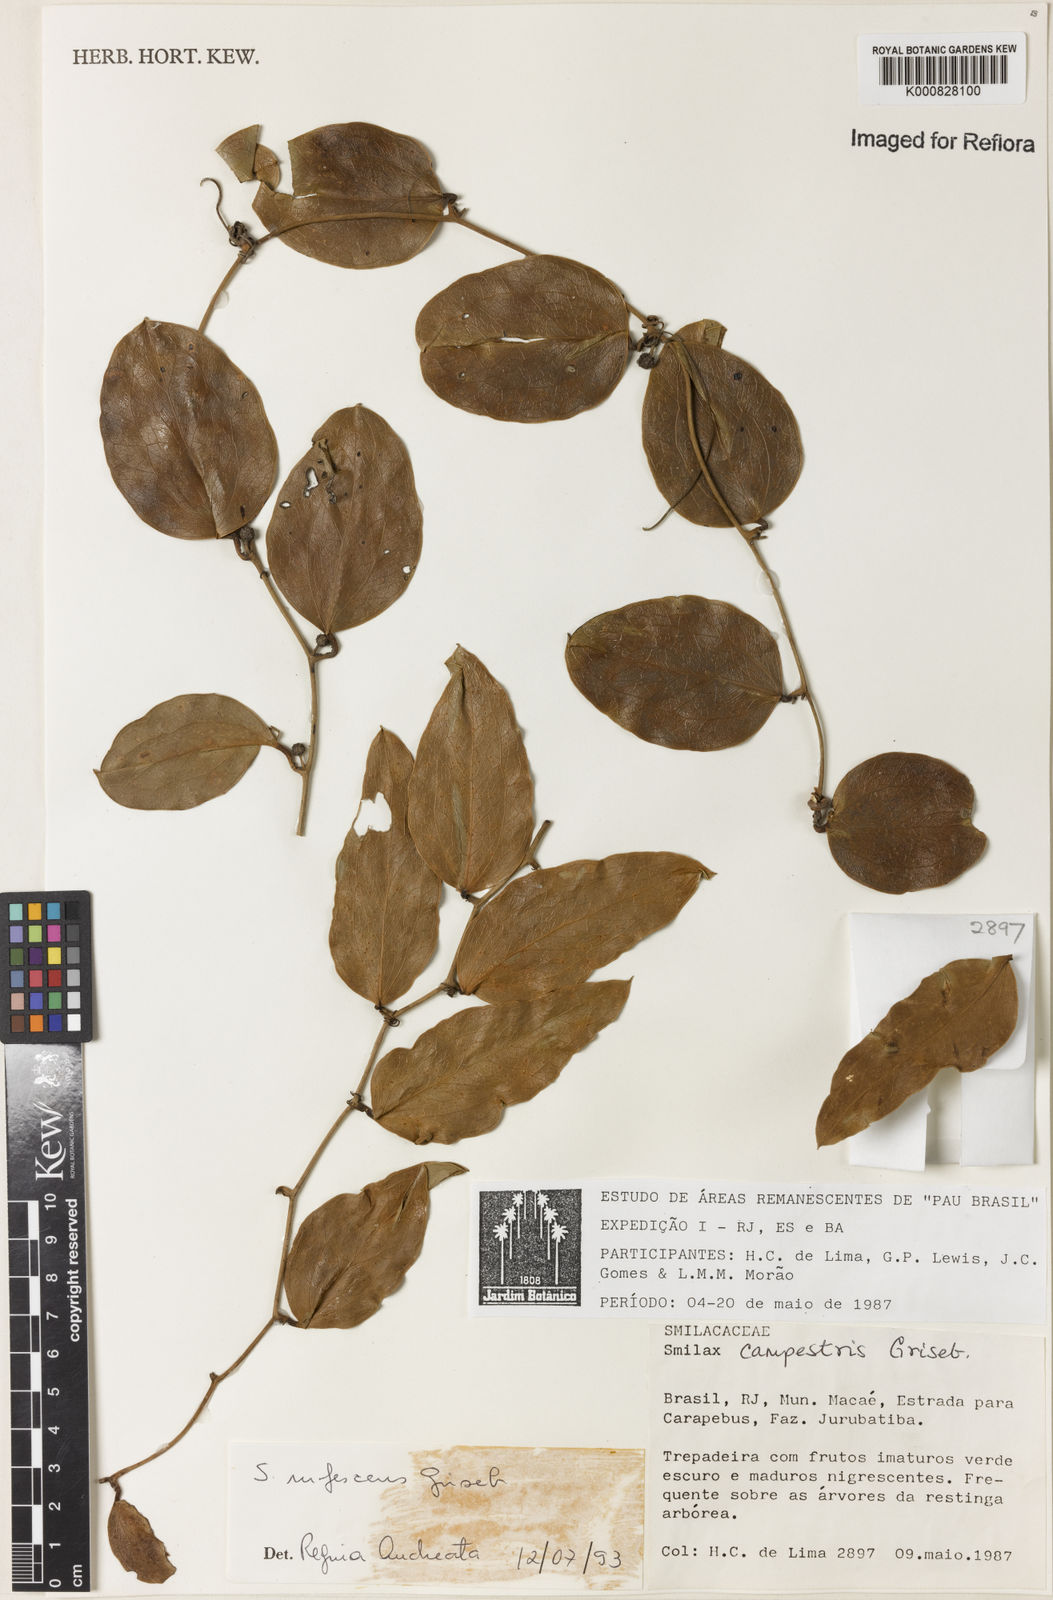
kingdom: Plantae
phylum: Tracheophyta
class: Liliopsida
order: Liliales
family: Smilacaceae
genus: Smilax
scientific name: Smilax rufescens
